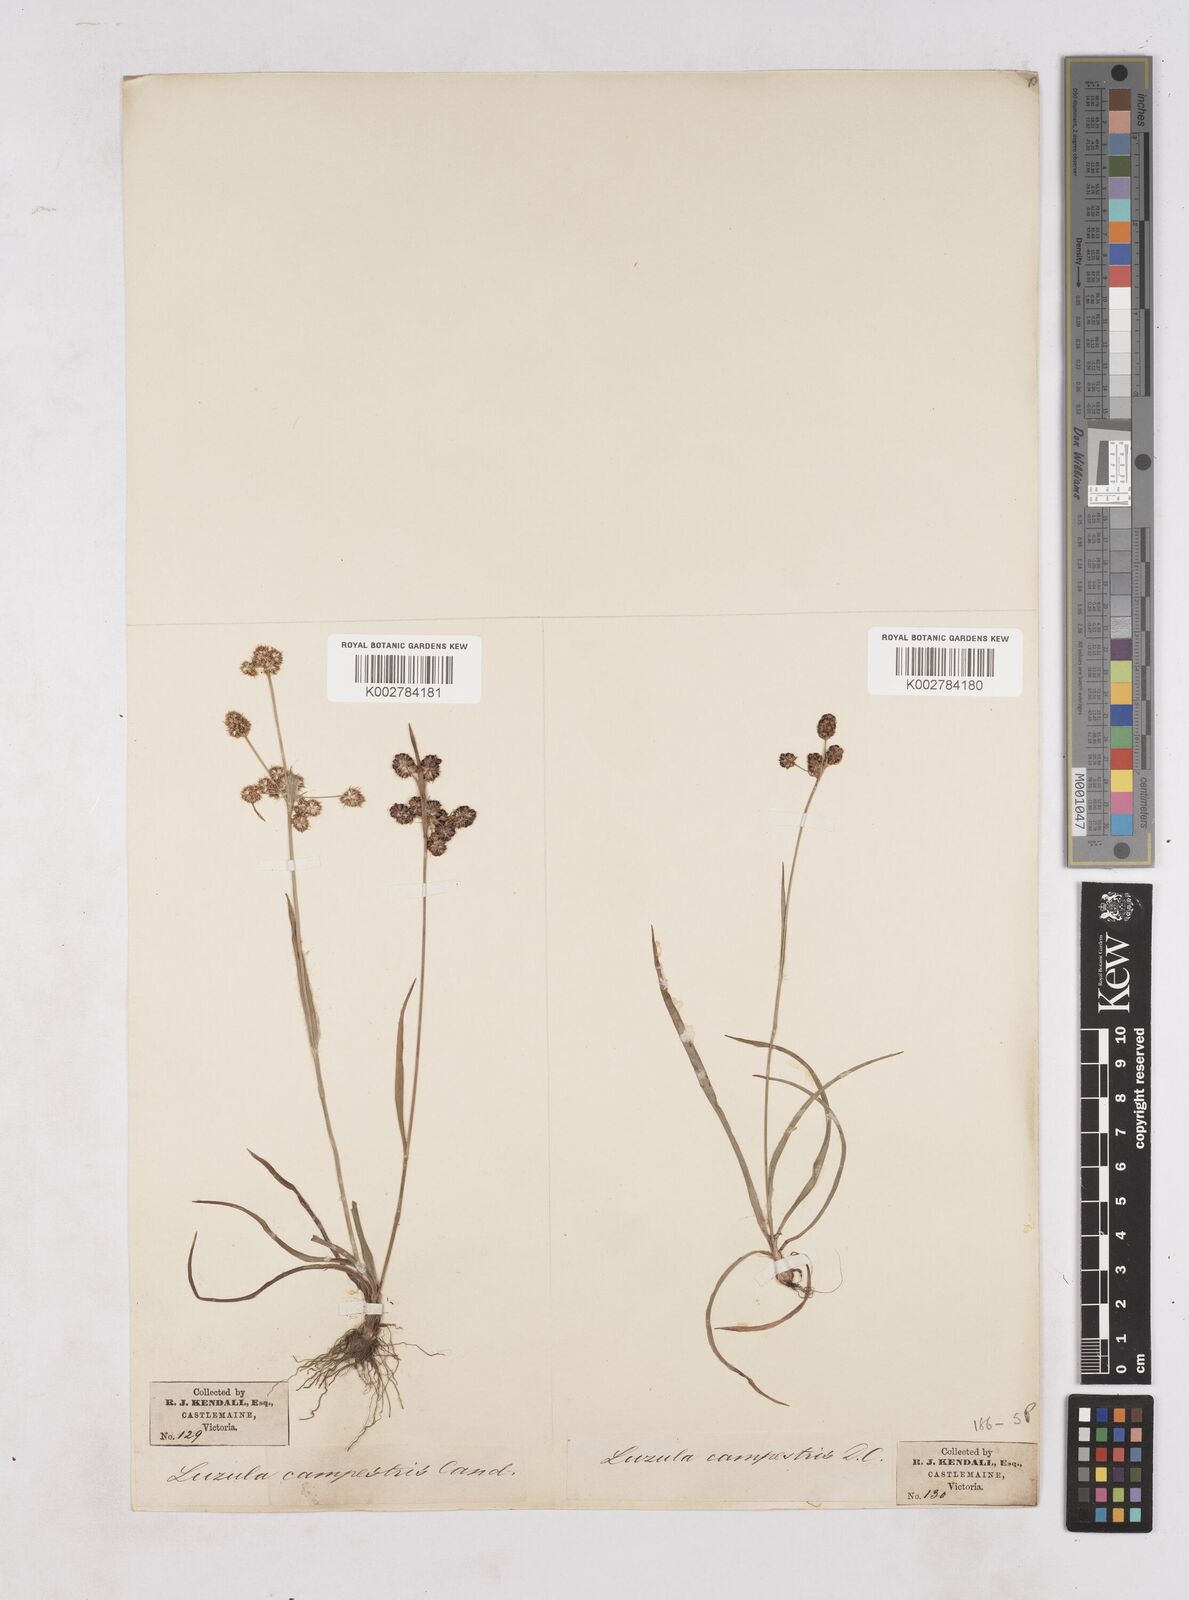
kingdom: Plantae
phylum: Tracheophyta
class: Liliopsida
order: Poales
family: Juncaceae
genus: Luzula
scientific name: Luzula campestris
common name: Field wood-rush
